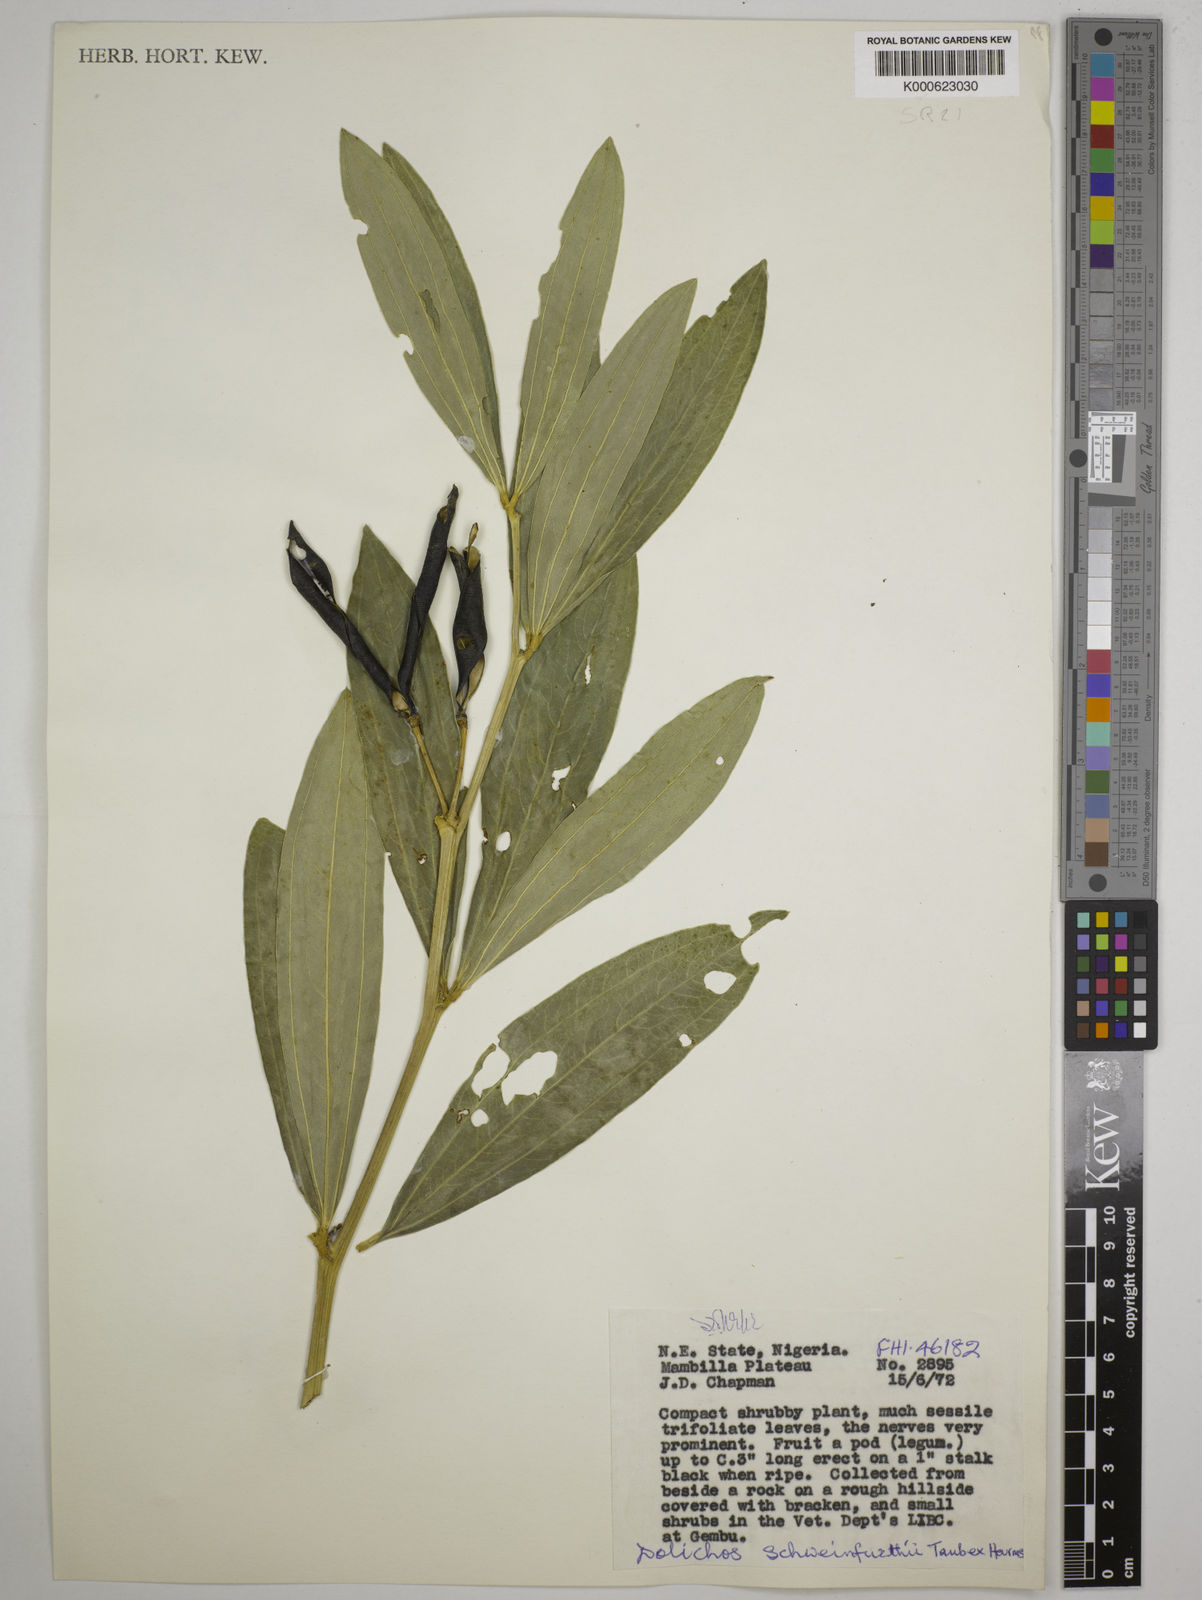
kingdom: Plantae
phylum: Tracheophyta
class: Magnoliopsida
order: Fabales
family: Fabaceae
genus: Dolichos
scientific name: Dolichos
